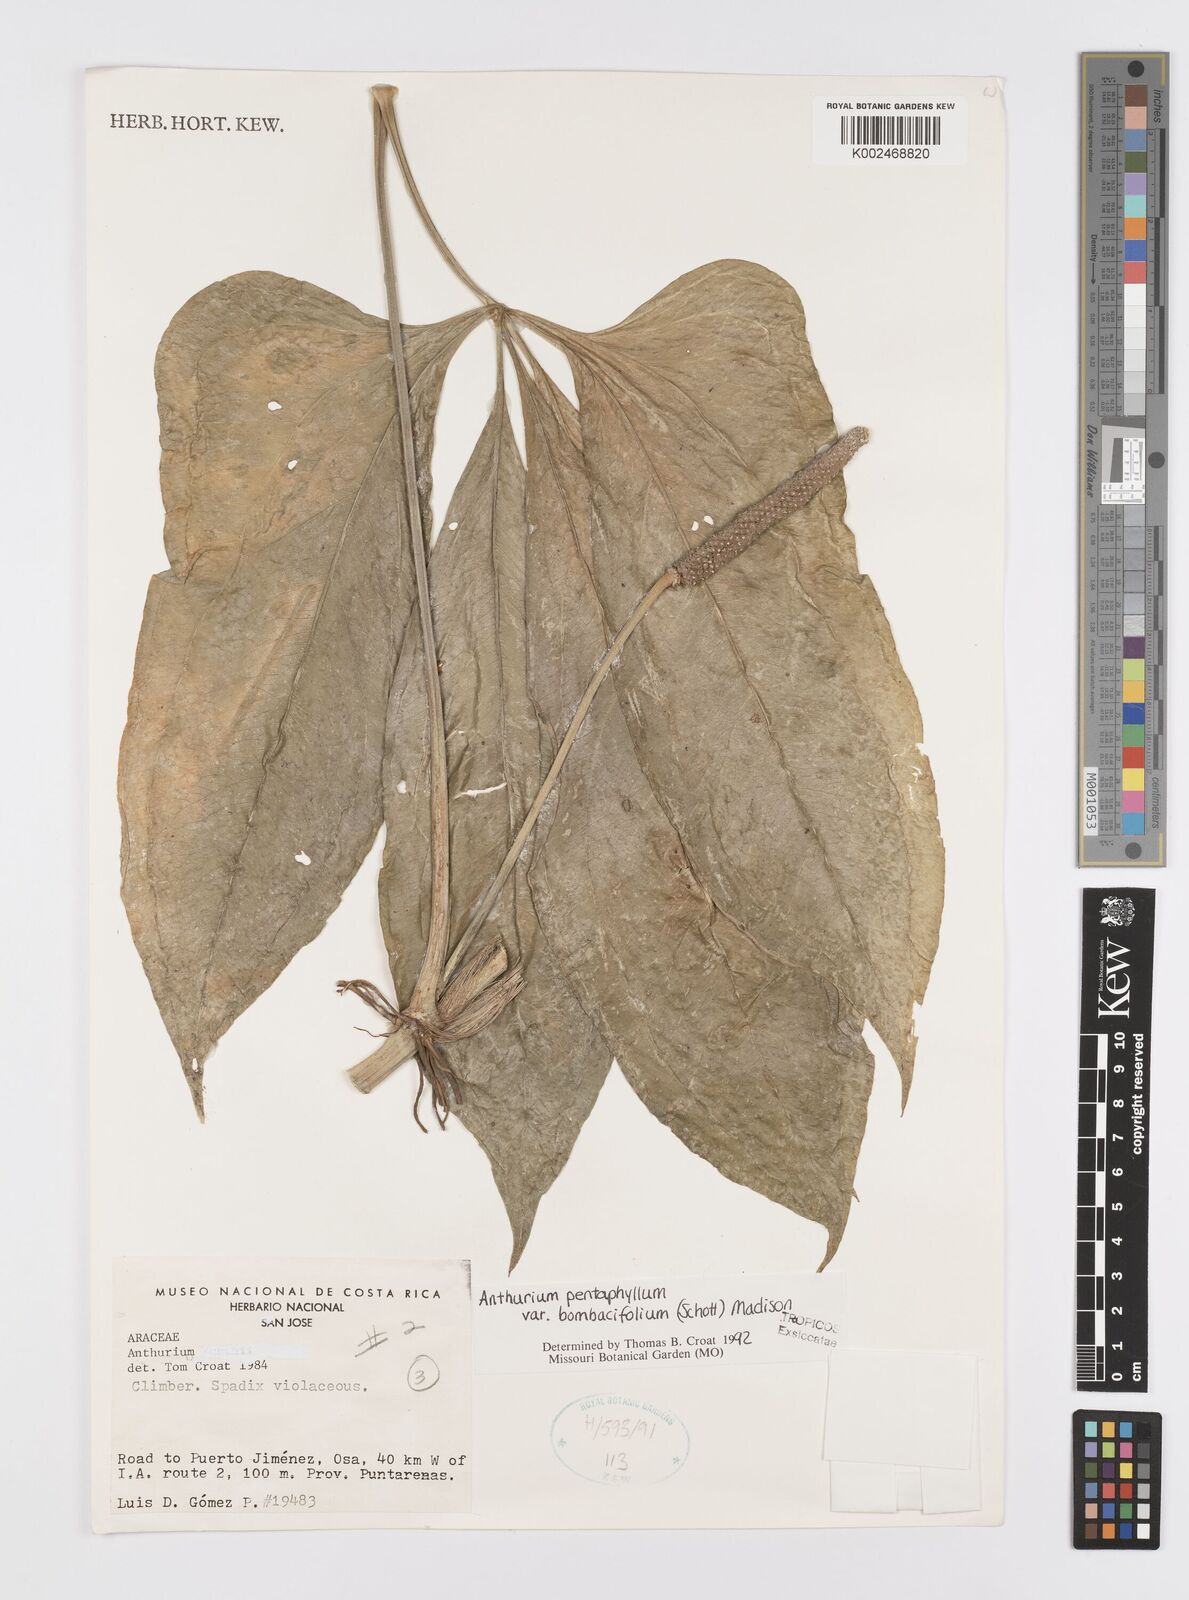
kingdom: Plantae
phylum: Tracheophyta
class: Liliopsida
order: Alismatales
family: Araceae
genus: Anthurium
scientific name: Anthurium pentaphyllum
